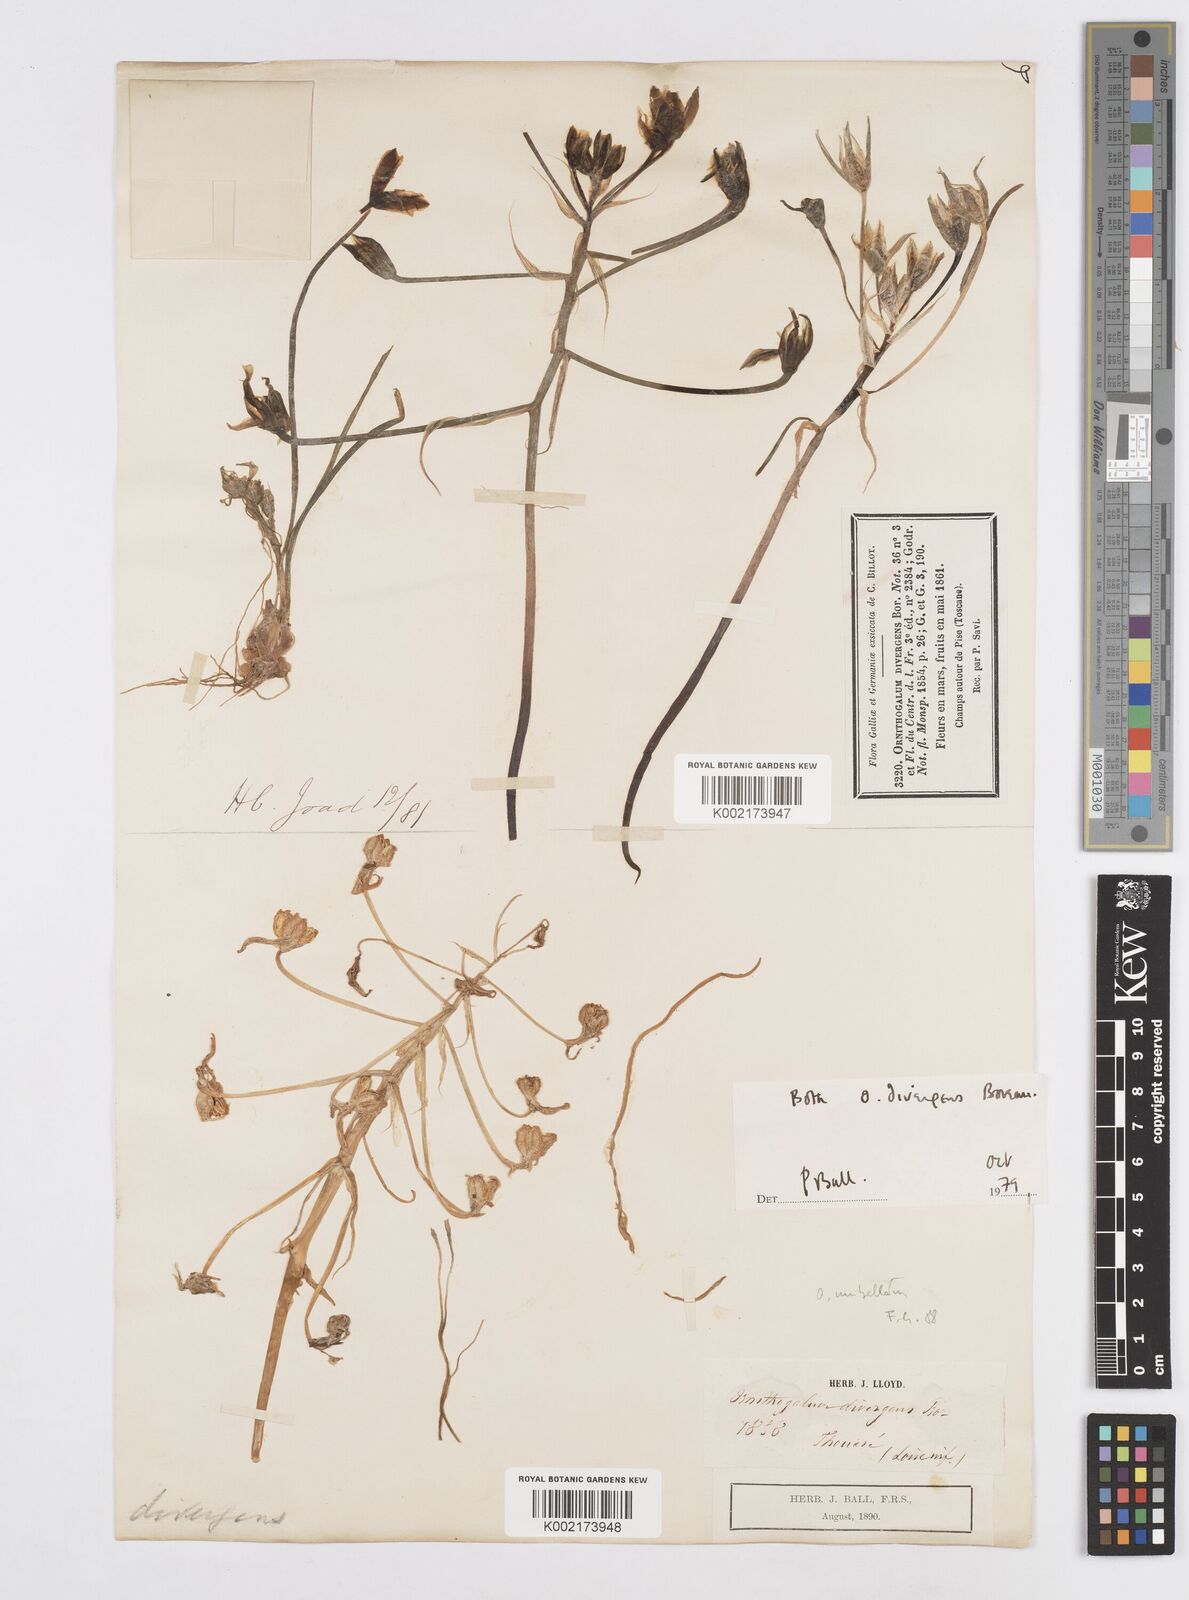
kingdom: Plantae
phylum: Tracheophyta
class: Liliopsida
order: Asparagales
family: Asparagaceae
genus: Ornithogalum
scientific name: Ornithogalum divergens
